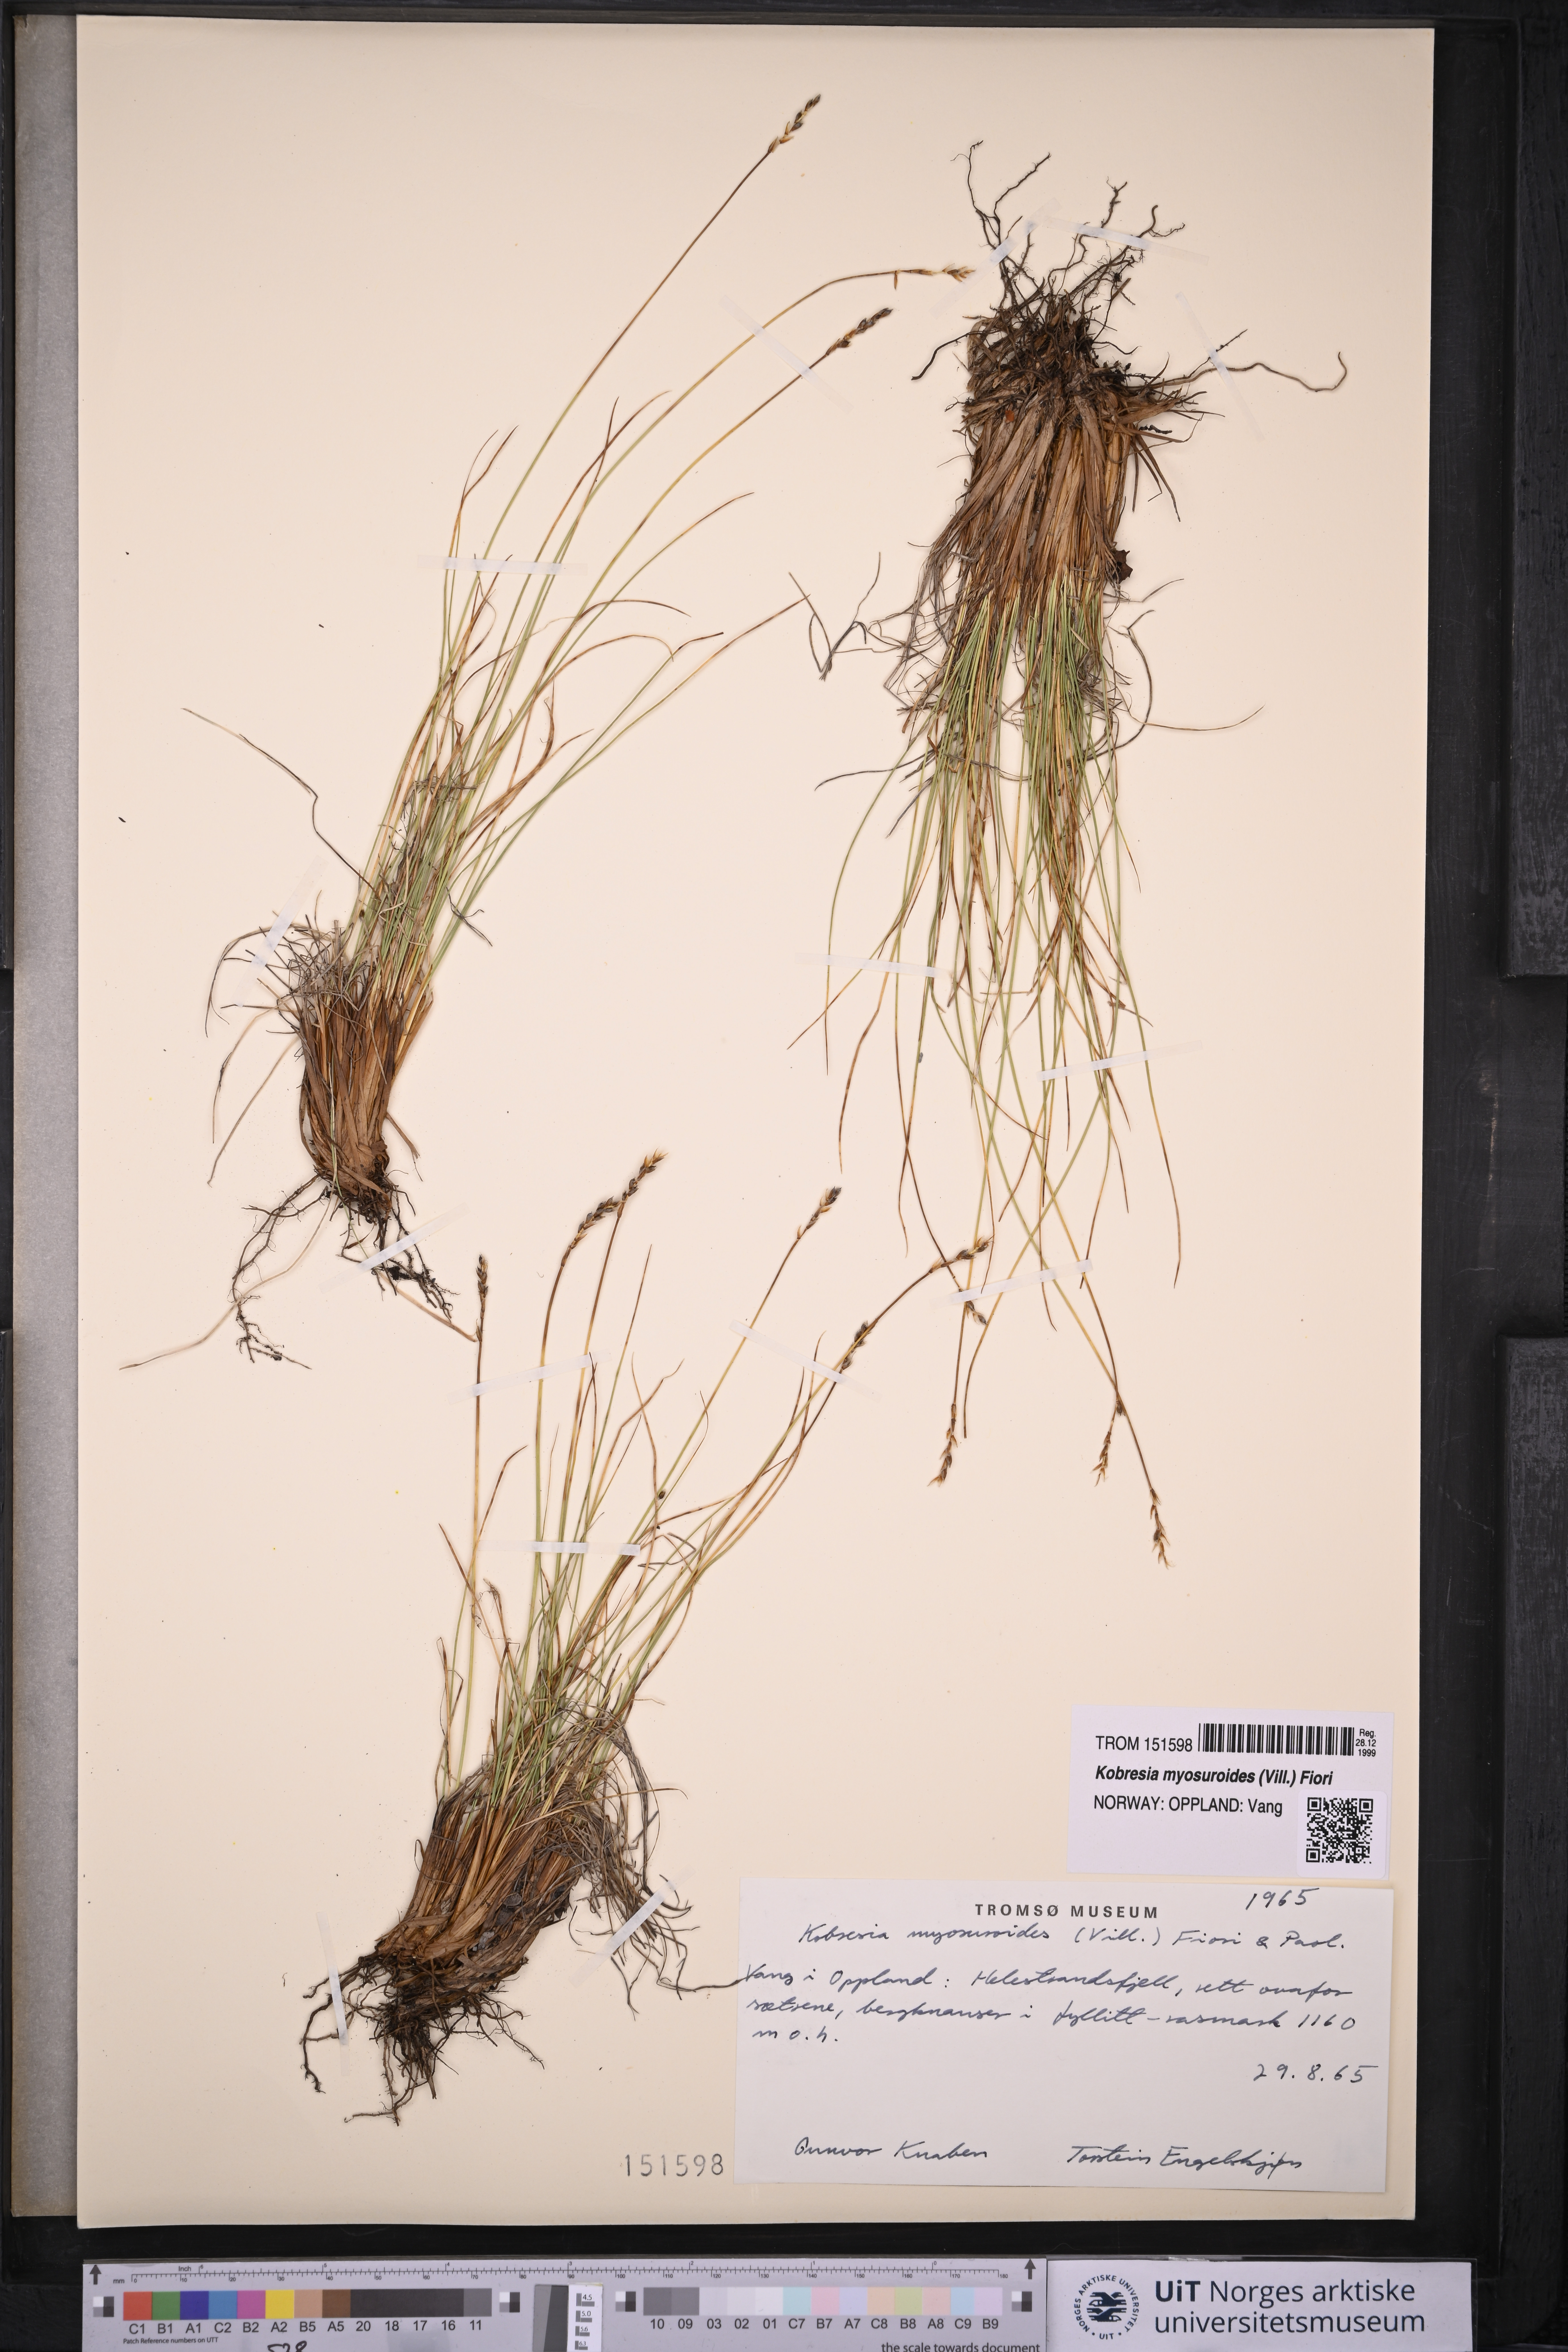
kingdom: Plantae
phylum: Tracheophyta
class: Liliopsida
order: Poales
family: Cyperaceae
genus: Carex
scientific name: Carex myosuroides
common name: Bellard's bog sedge
